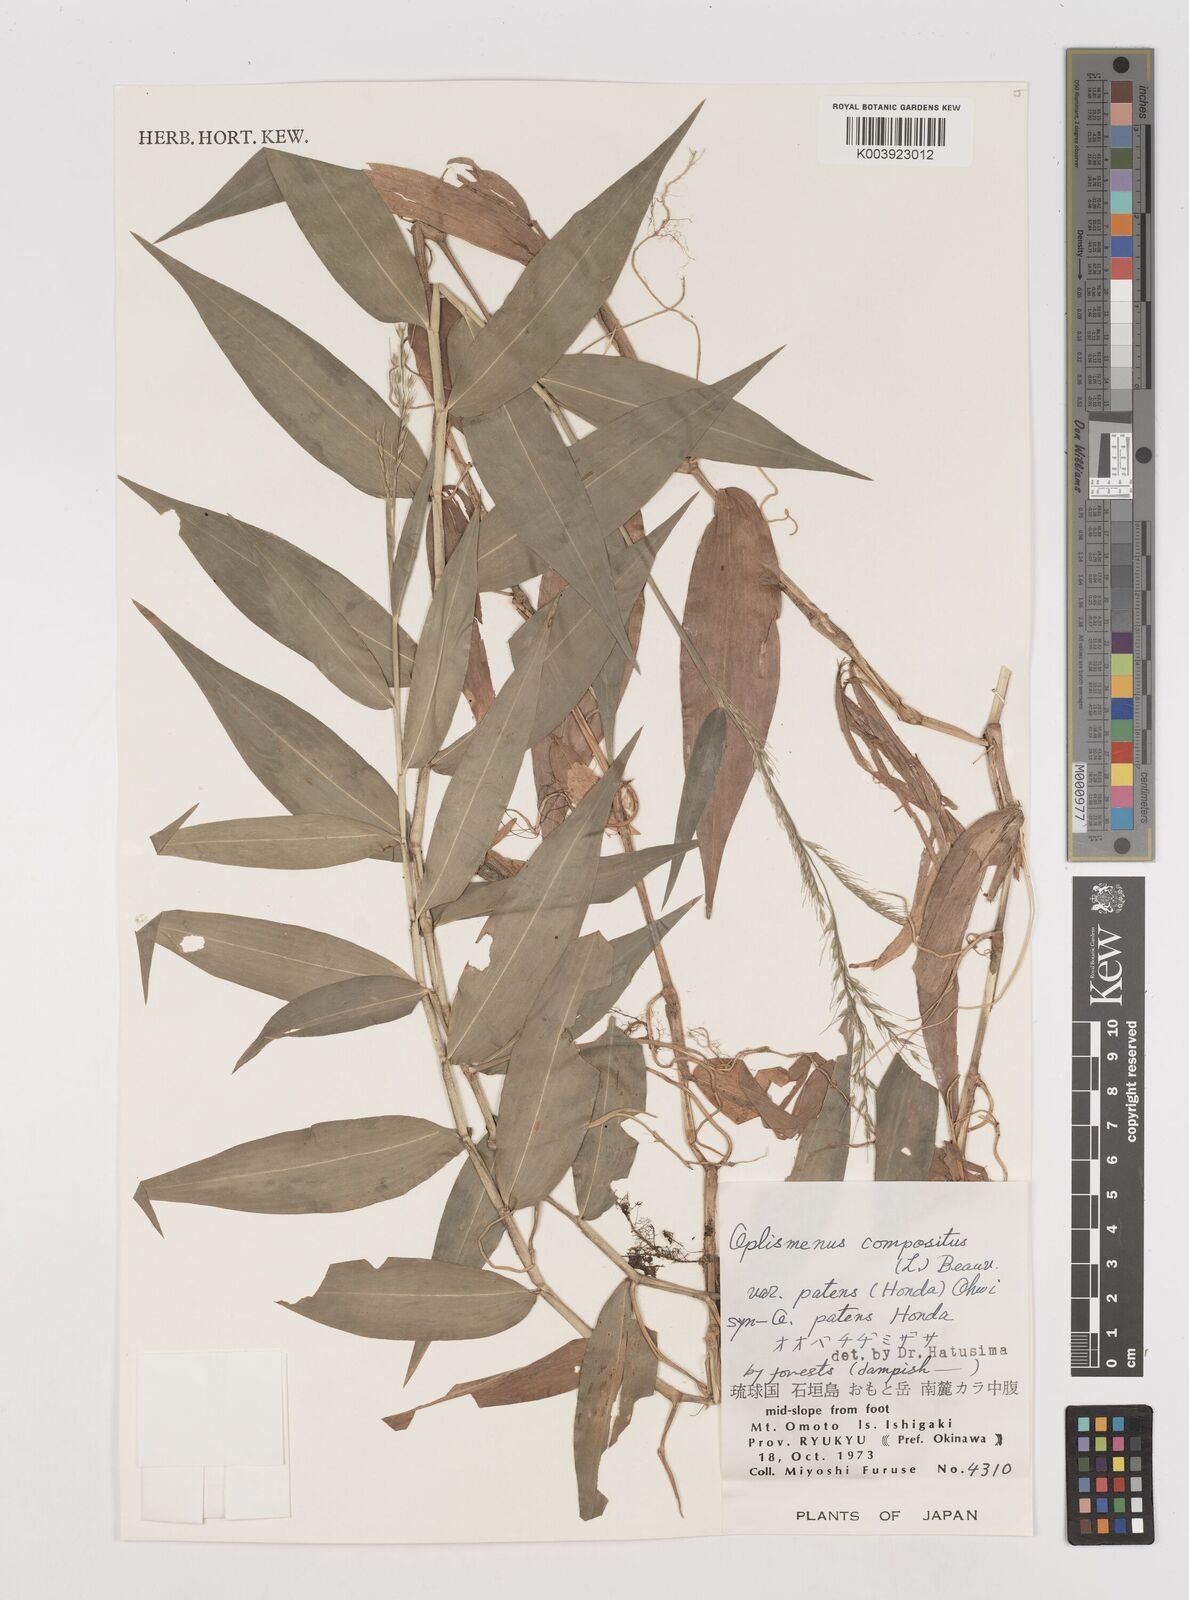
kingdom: Plantae
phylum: Tracheophyta
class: Liliopsida
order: Poales
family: Poaceae
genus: Oplismenus
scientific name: Oplismenus compositus
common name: Running mountain grass
